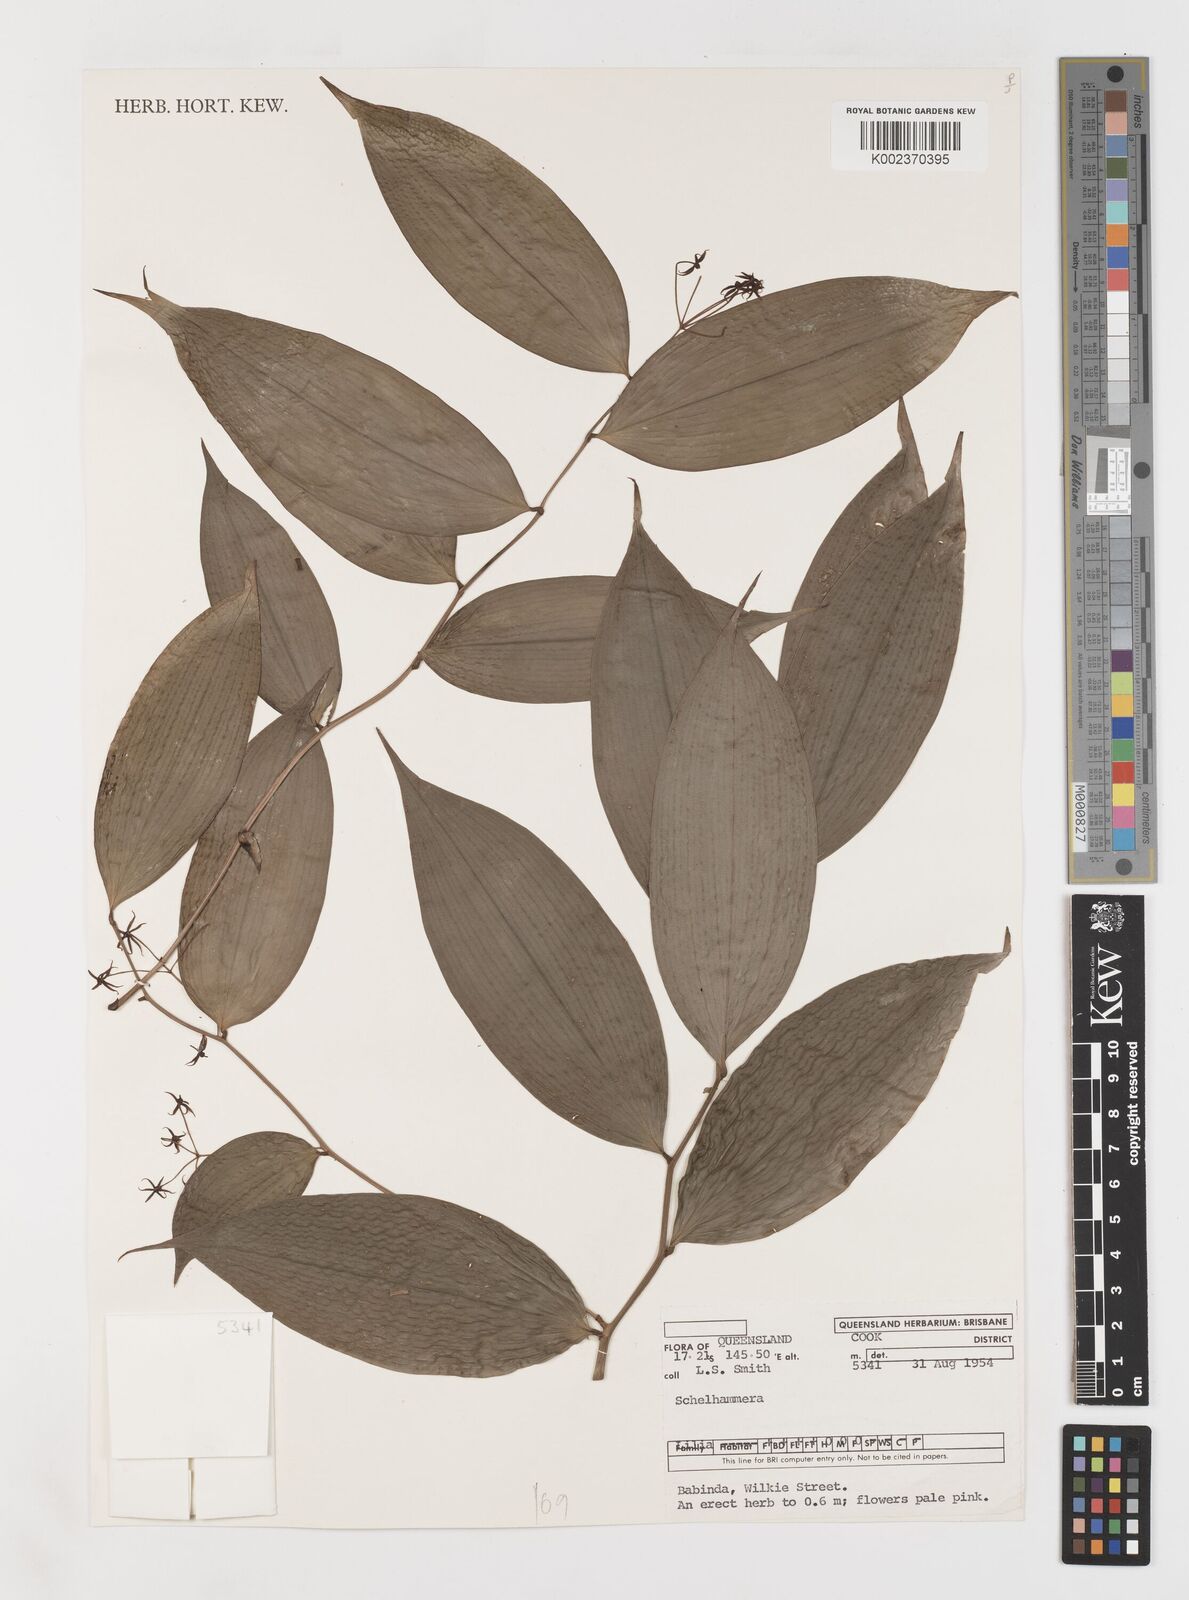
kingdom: Plantae
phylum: Tracheophyta
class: Liliopsida
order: Liliales
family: Colchicaceae
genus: Schelhammera
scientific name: Schelhammera
